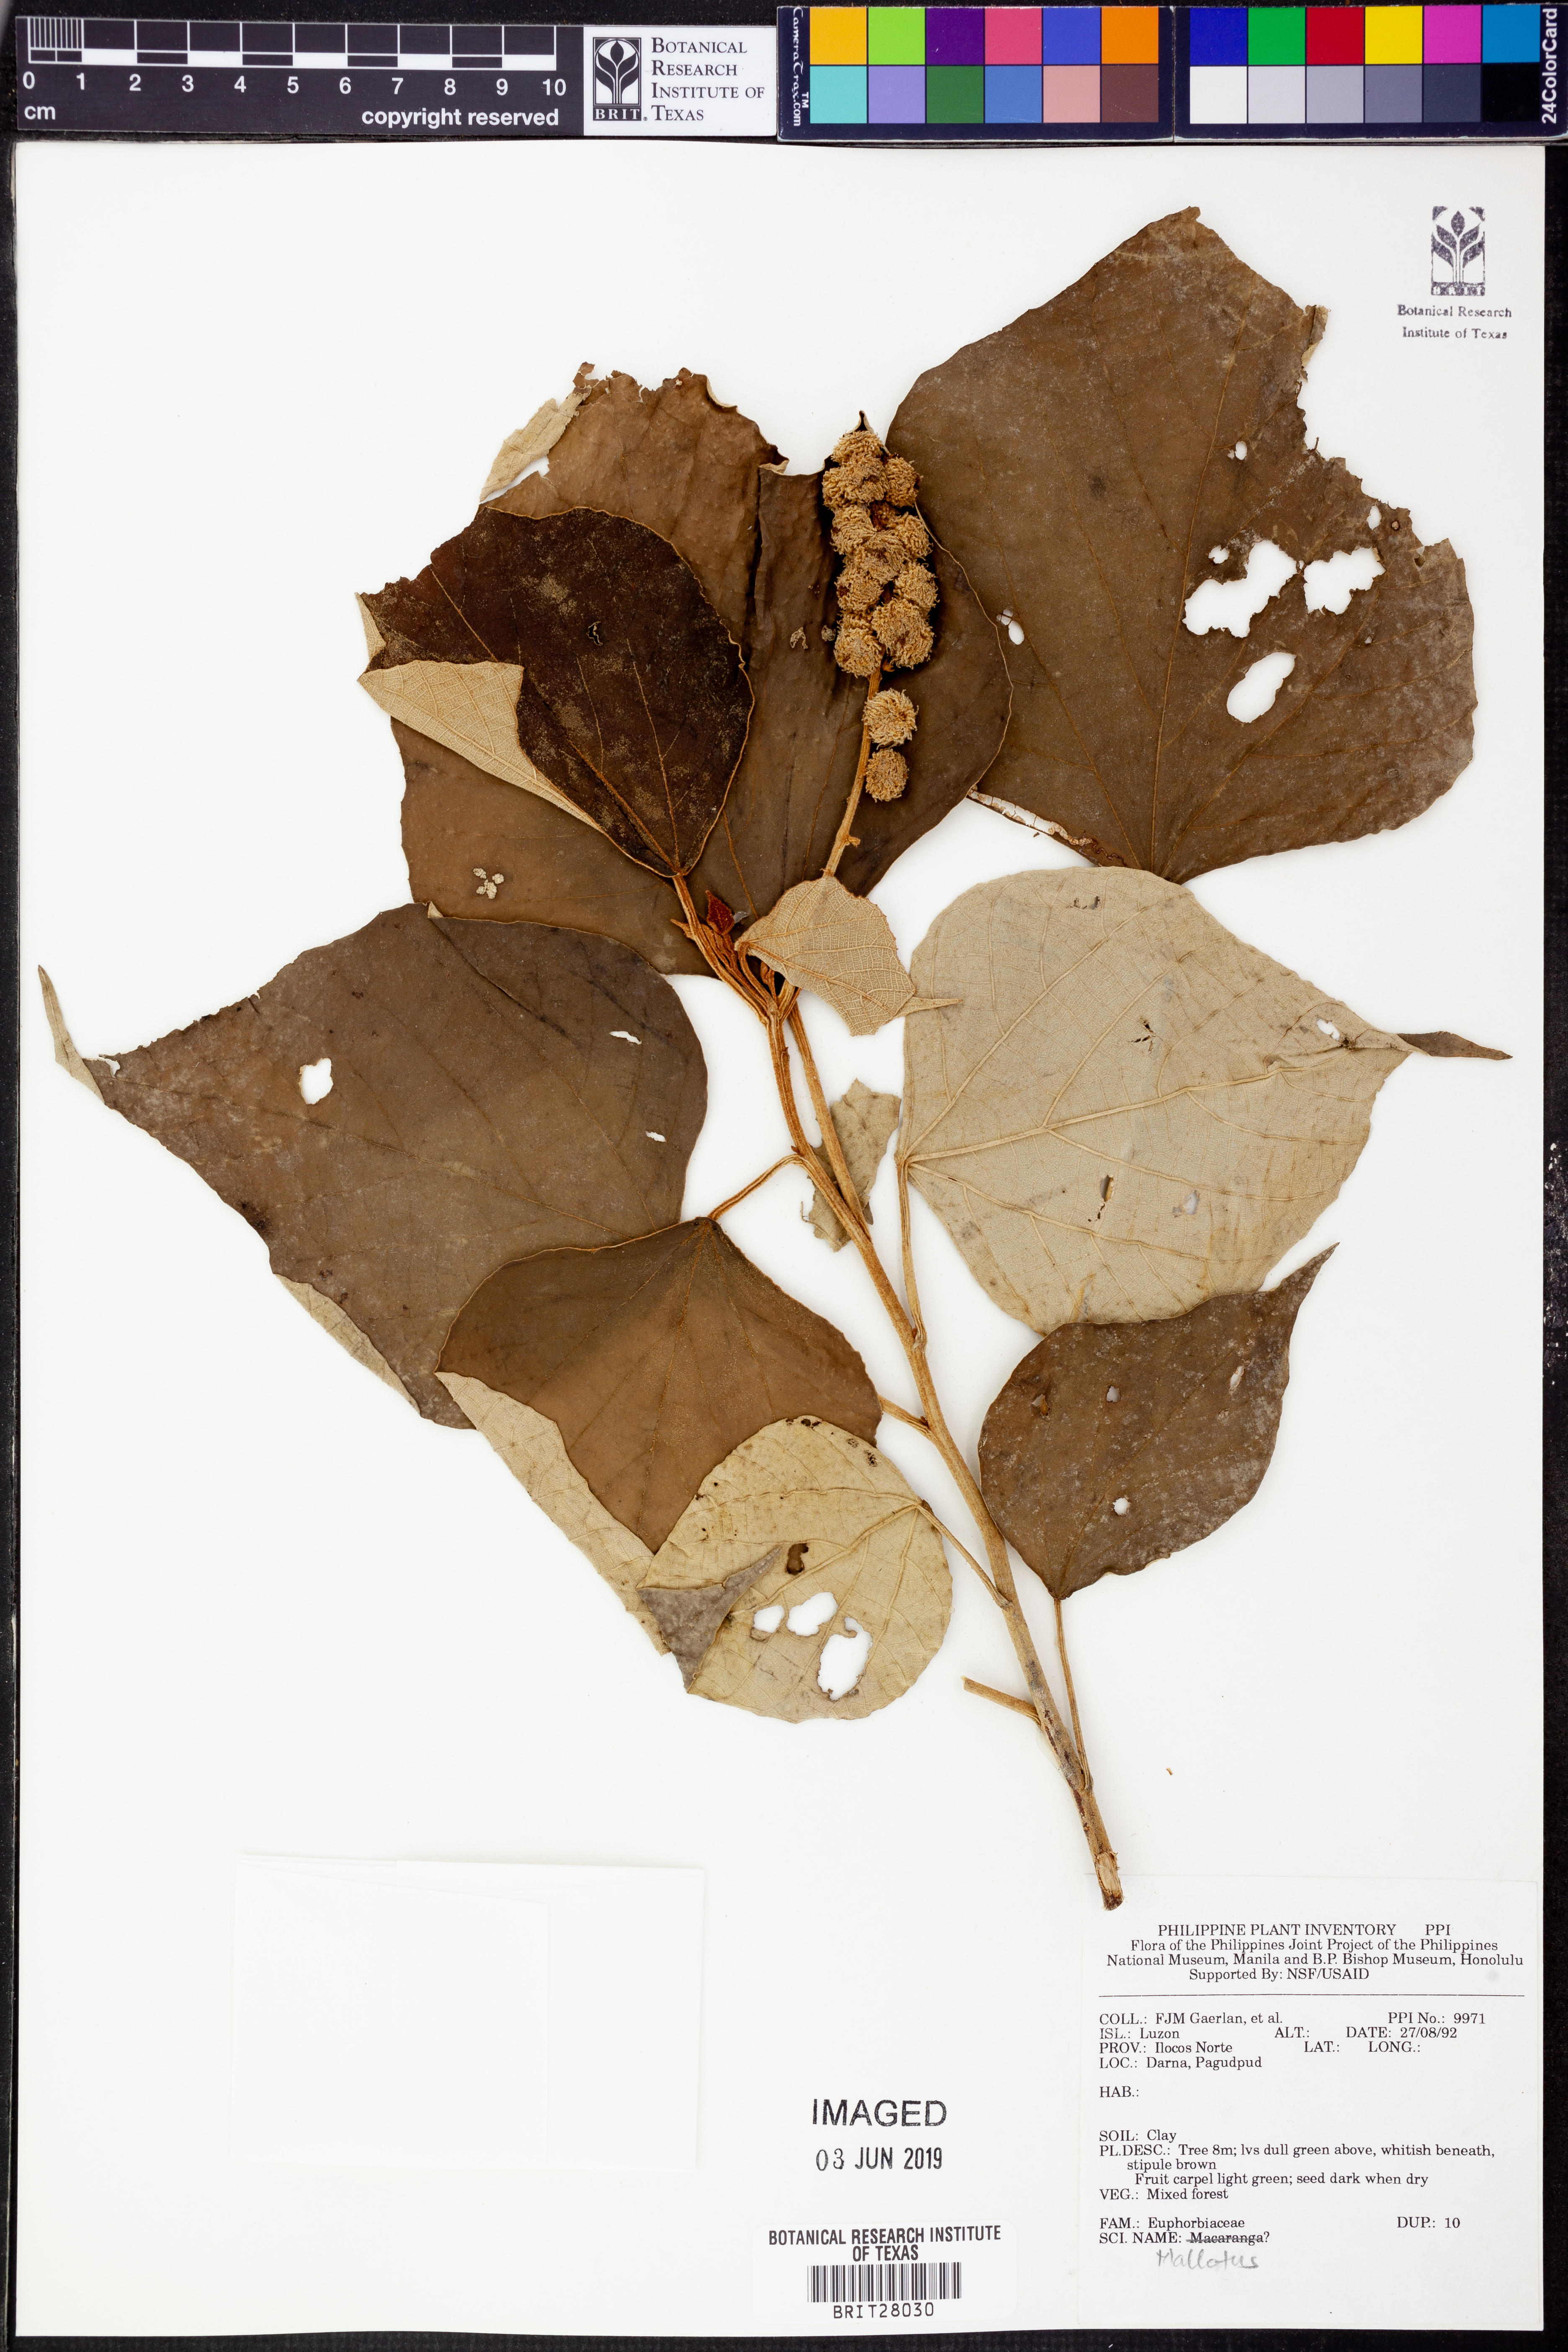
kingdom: Plantae
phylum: Tracheophyta
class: Magnoliopsida
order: Malpighiales
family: Euphorbiaceae
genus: Mallotus
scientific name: Mallotus
